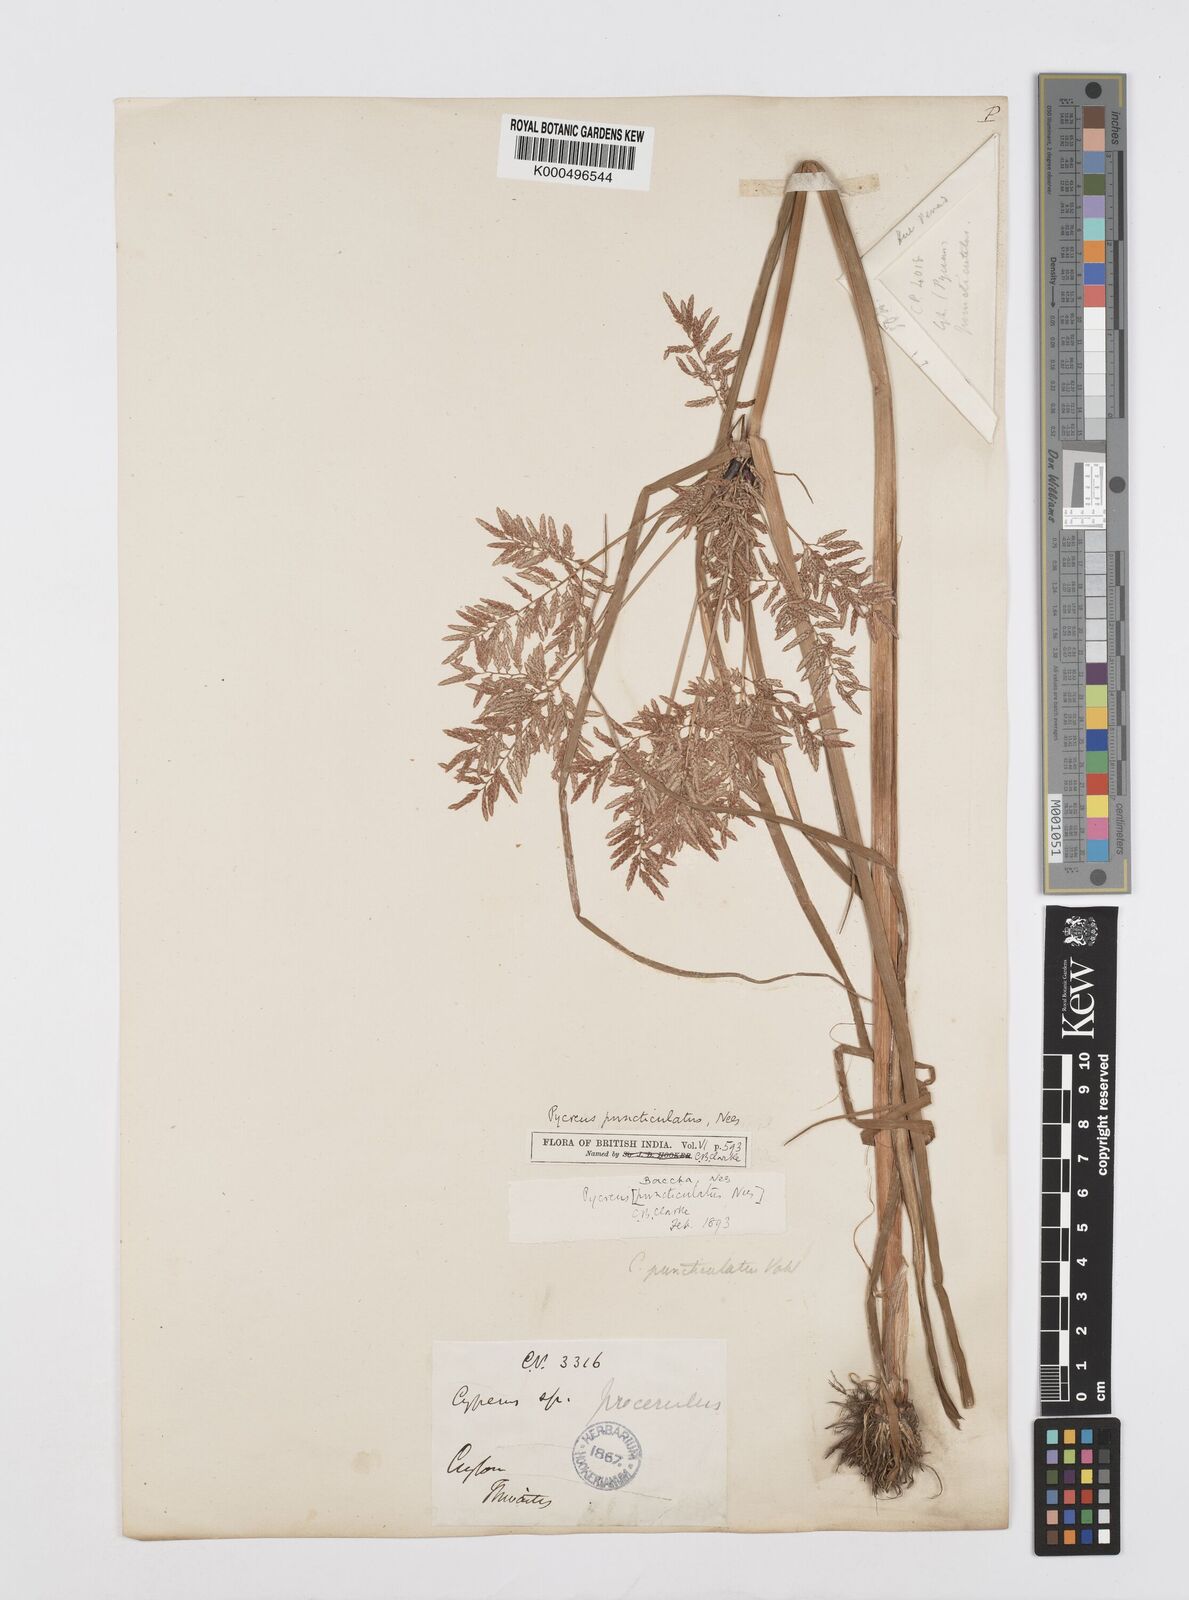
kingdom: Plantae
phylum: Tracheophyta
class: Liliopsida
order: Poales
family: Cyperaceae
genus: Cyperus
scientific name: Cyperus puncticulatus
